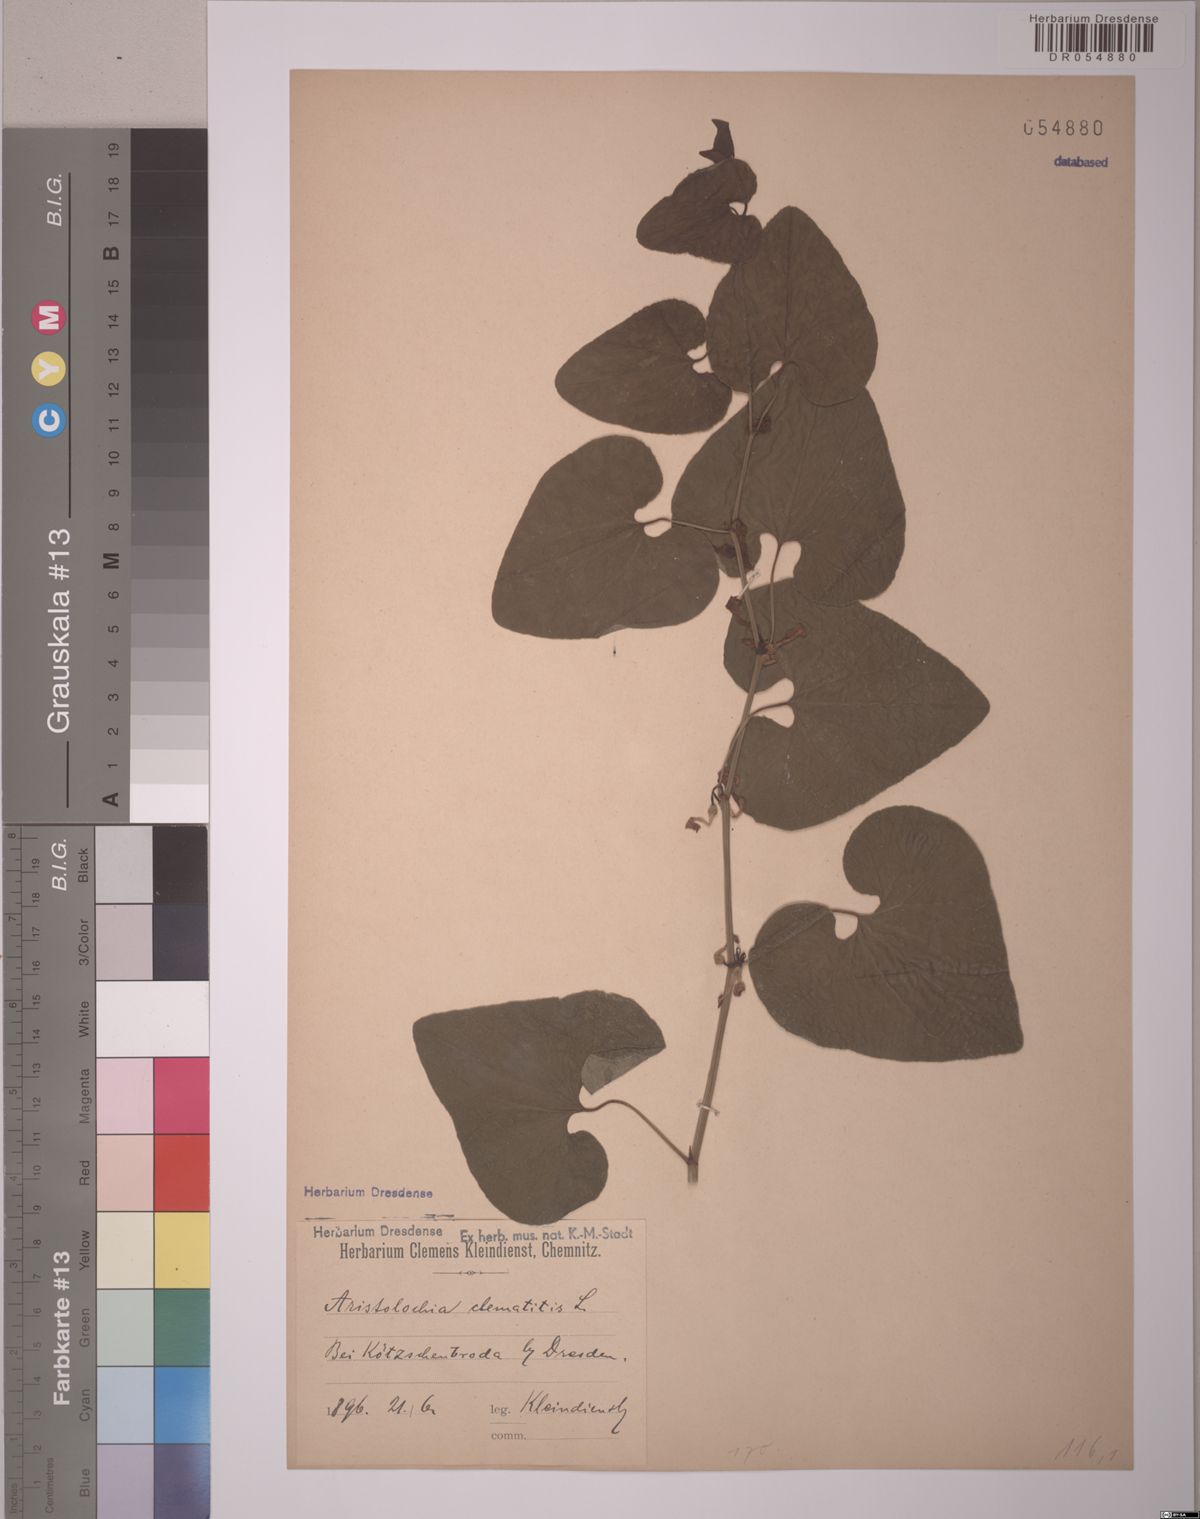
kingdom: Plantae
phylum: Tracheophyta
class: Magnoliopsida
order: Piperales
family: Aristolochiaceae
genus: Aristolochia
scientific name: Aristolochia clematitis
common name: Birthwort
